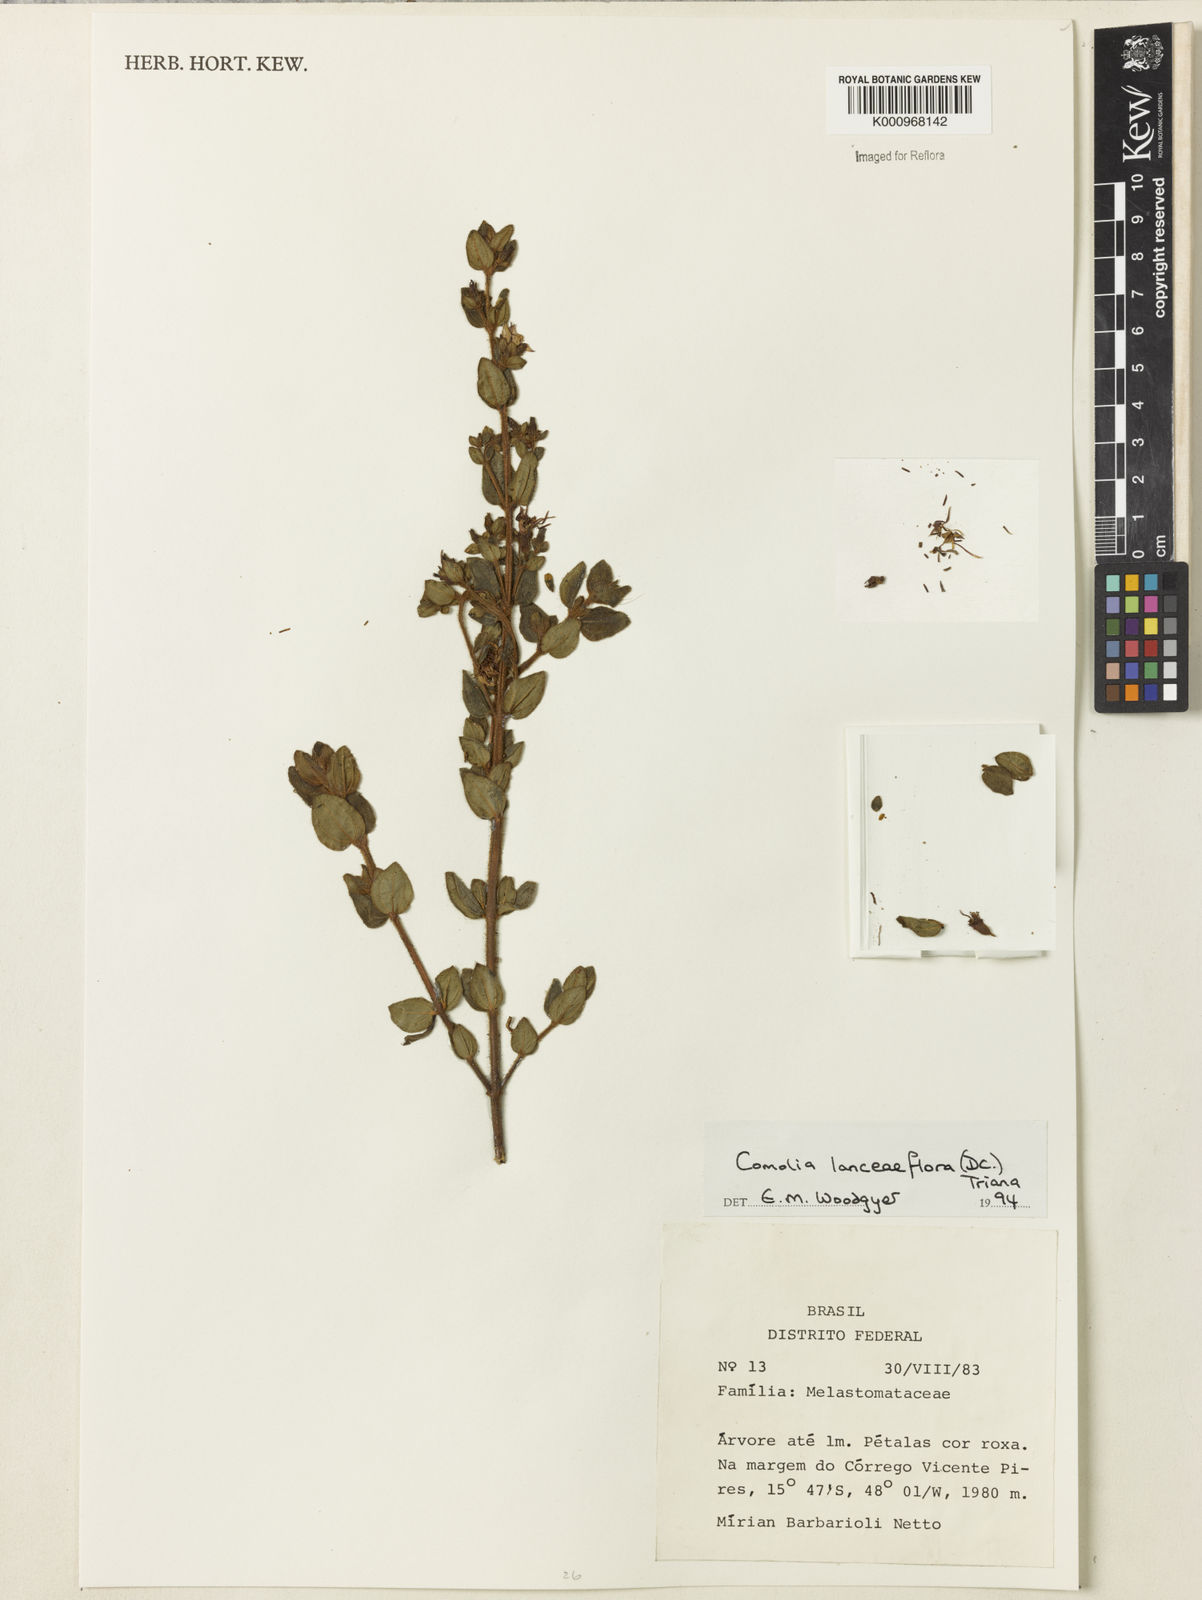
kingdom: Plantae
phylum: Tracheophyta
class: Magnoliopsida
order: Myrtales
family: Melastomataceae
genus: Fritzschia
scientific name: Fritzschia lanceiflora
